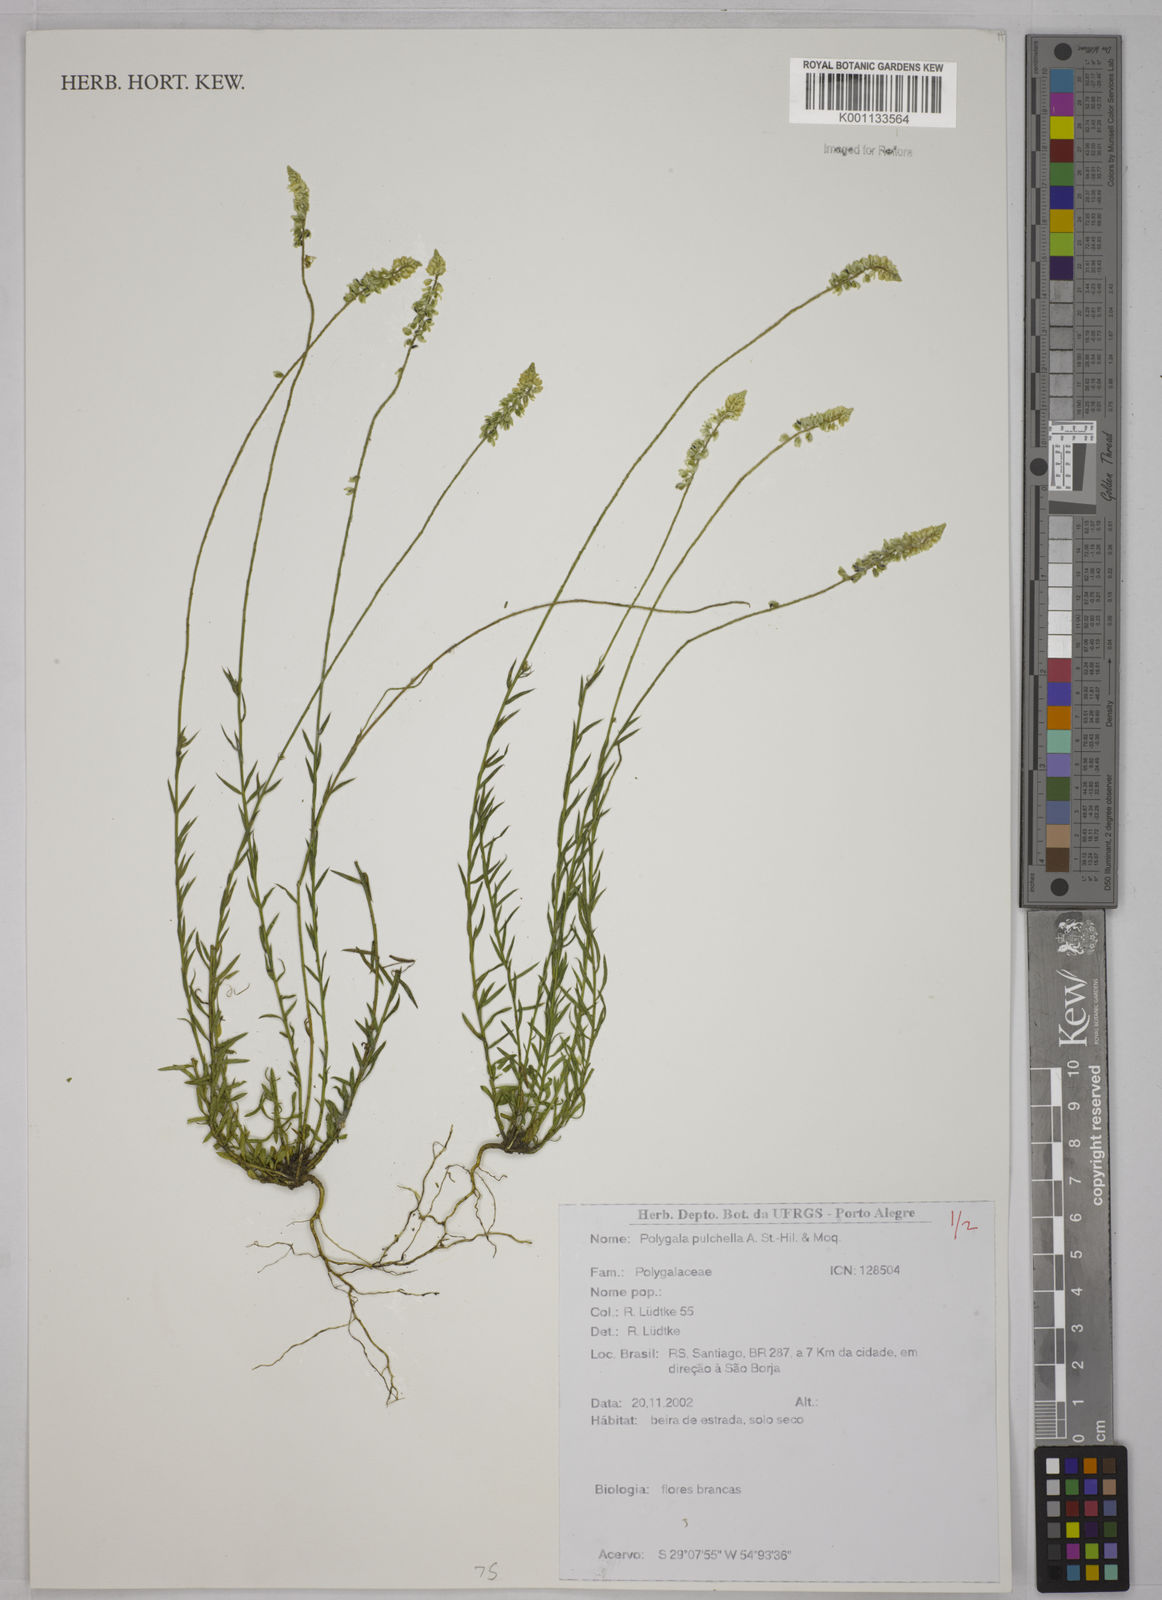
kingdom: Plantae
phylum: Tracheophyta
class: Magnoliopsida
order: Fabales
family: Polygalaceae
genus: Polygala
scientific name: Polygala pulchella
